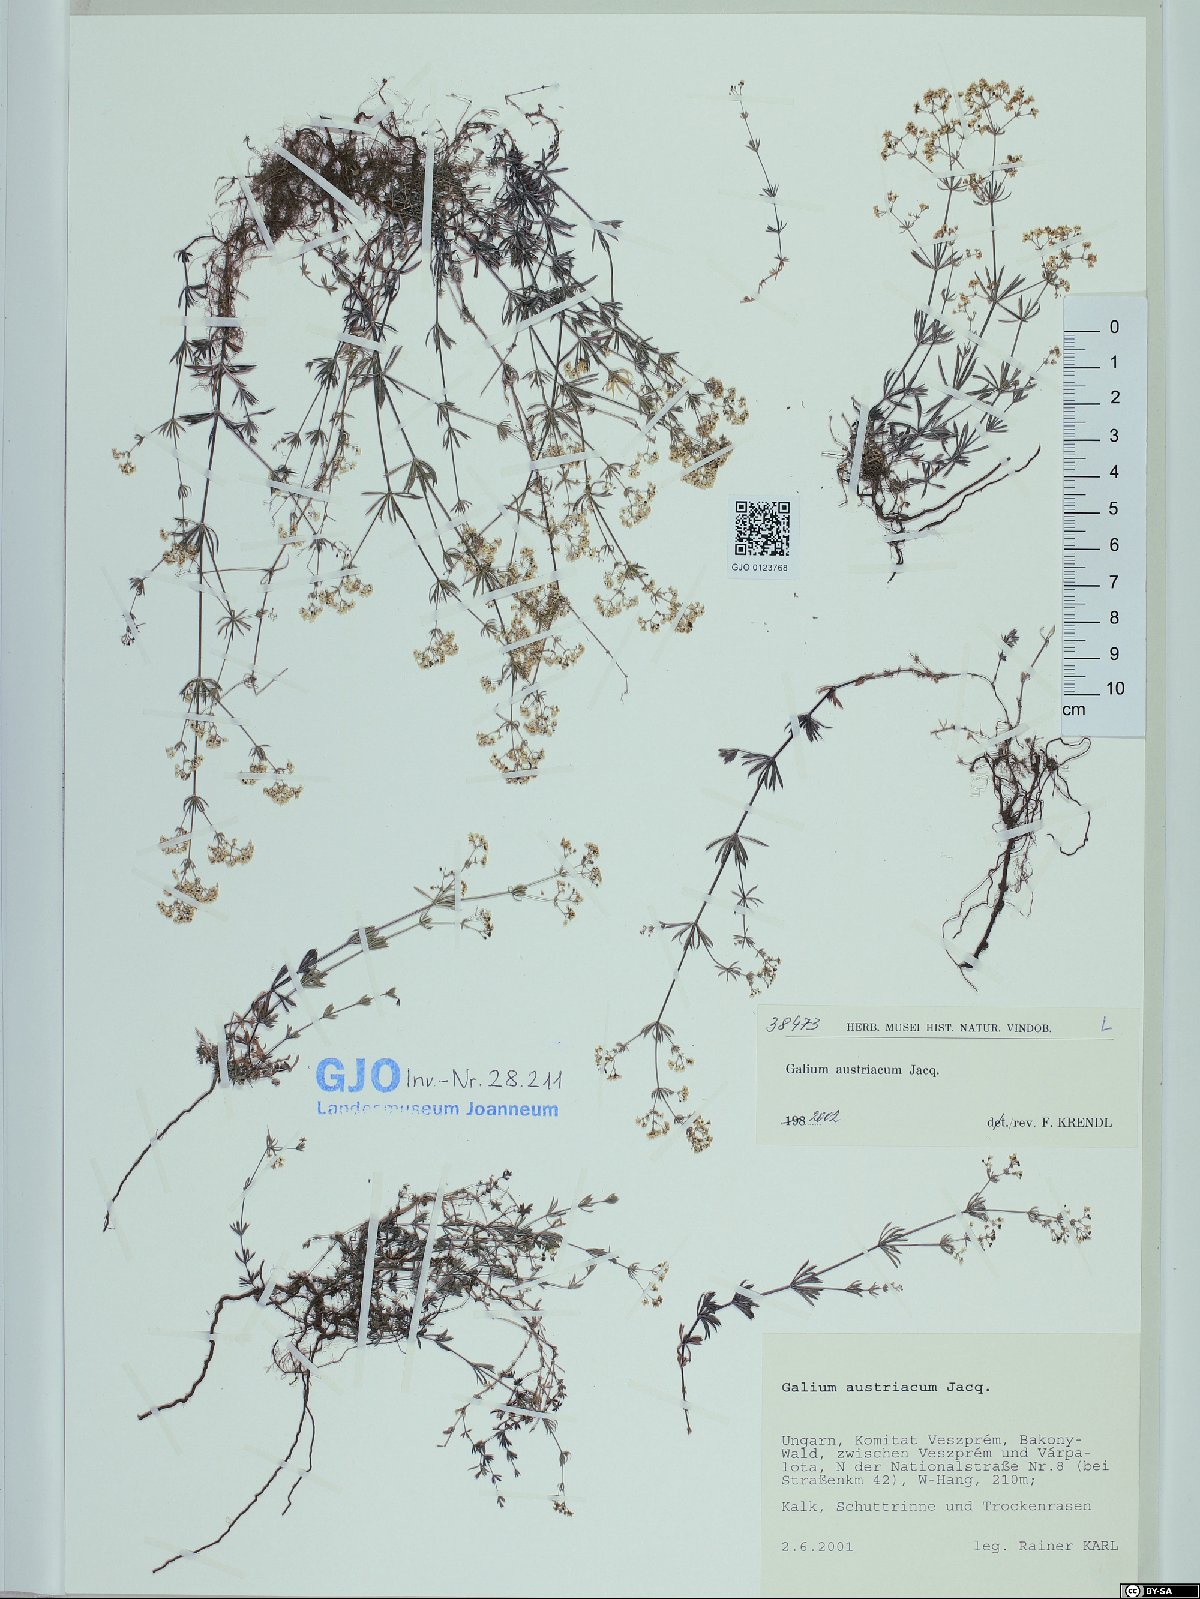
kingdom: Plantae
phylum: Tracheophyta
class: Magnoliopsida
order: Gentianales
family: Rubiaceae
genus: Galium
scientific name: Galium austriacum
